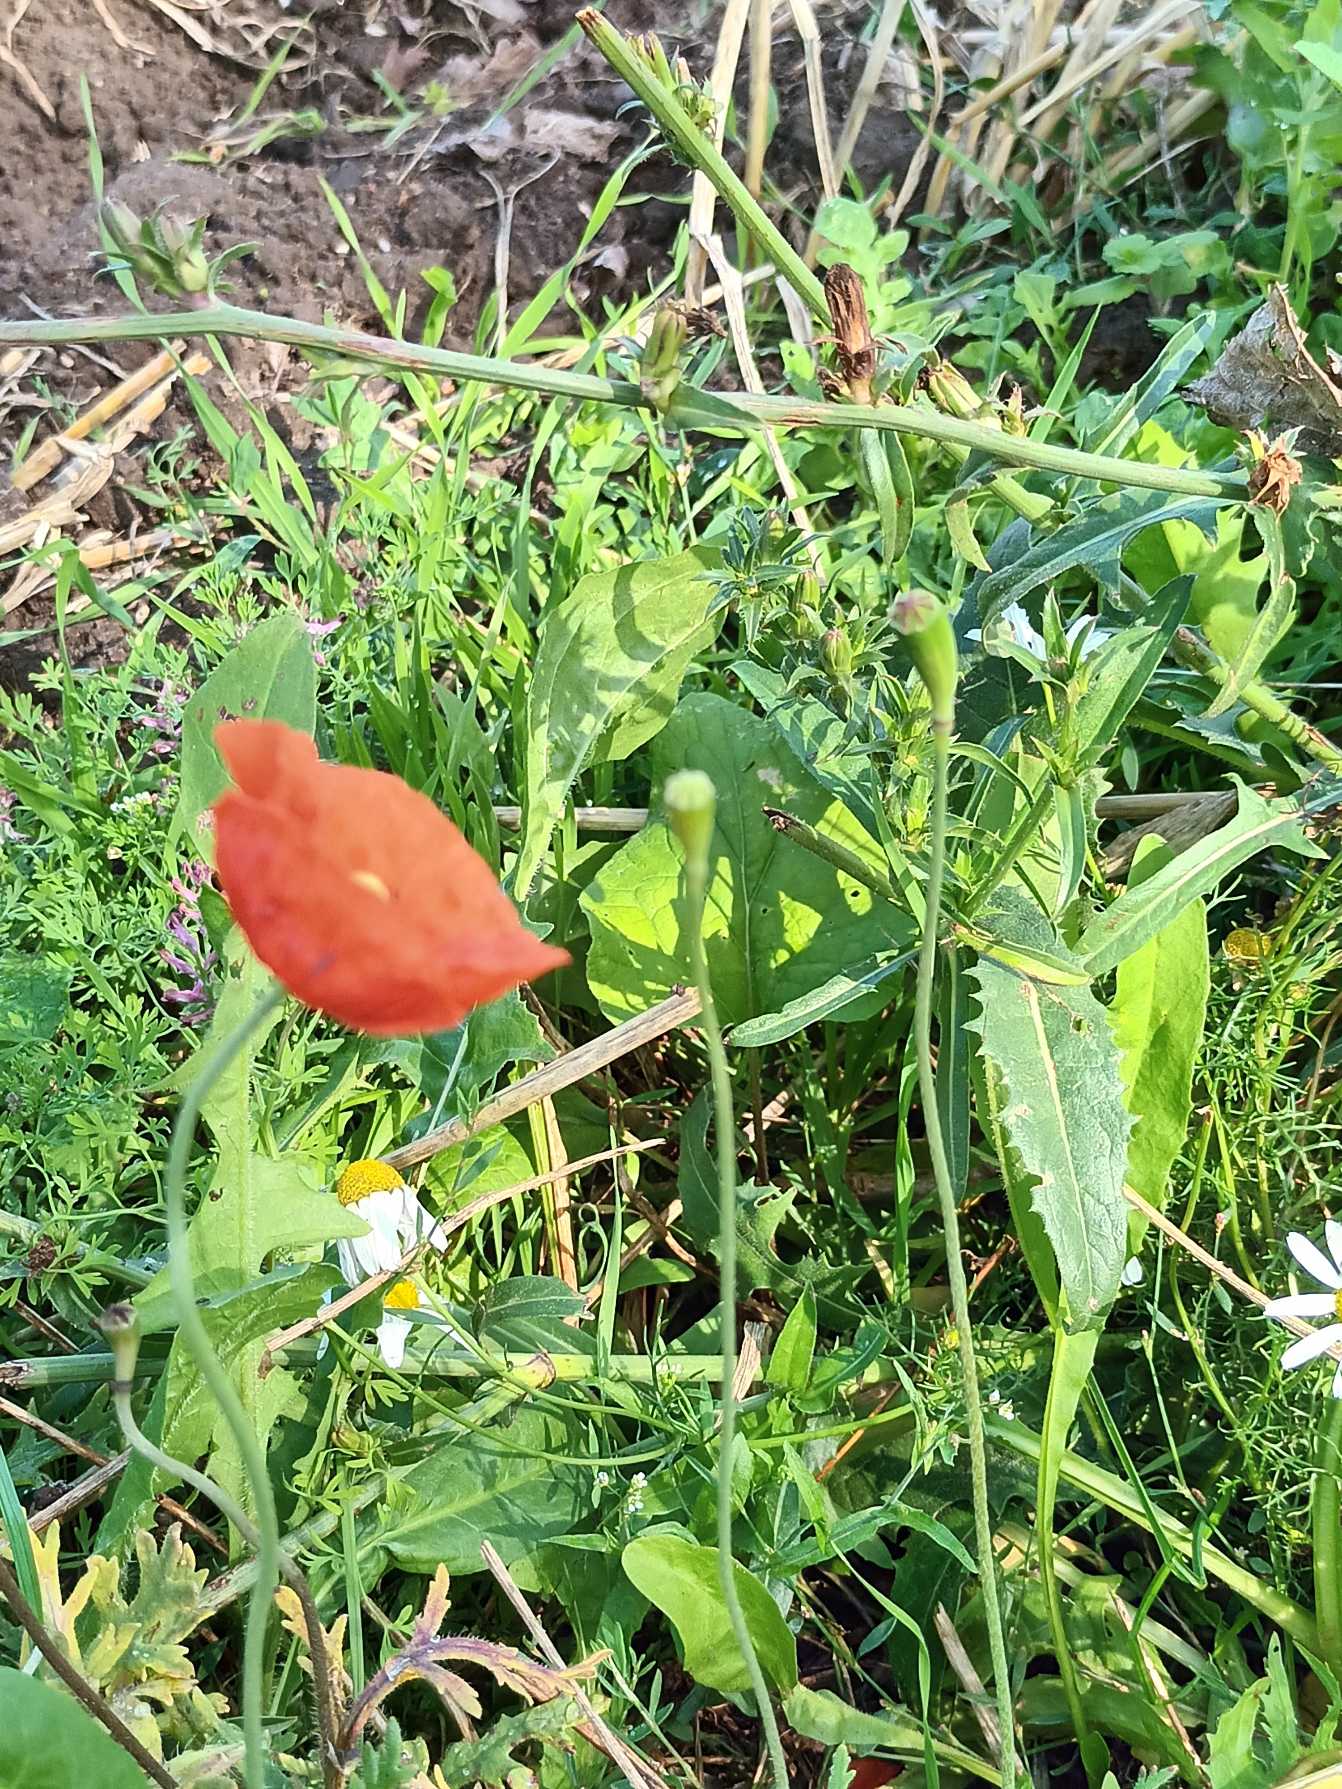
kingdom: Plantae
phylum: Tracheophyta
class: Magnoliopsida
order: Ranunculales
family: Papaveraceae
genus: Papaver
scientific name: Papaver dubium
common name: Gærde-valmue
